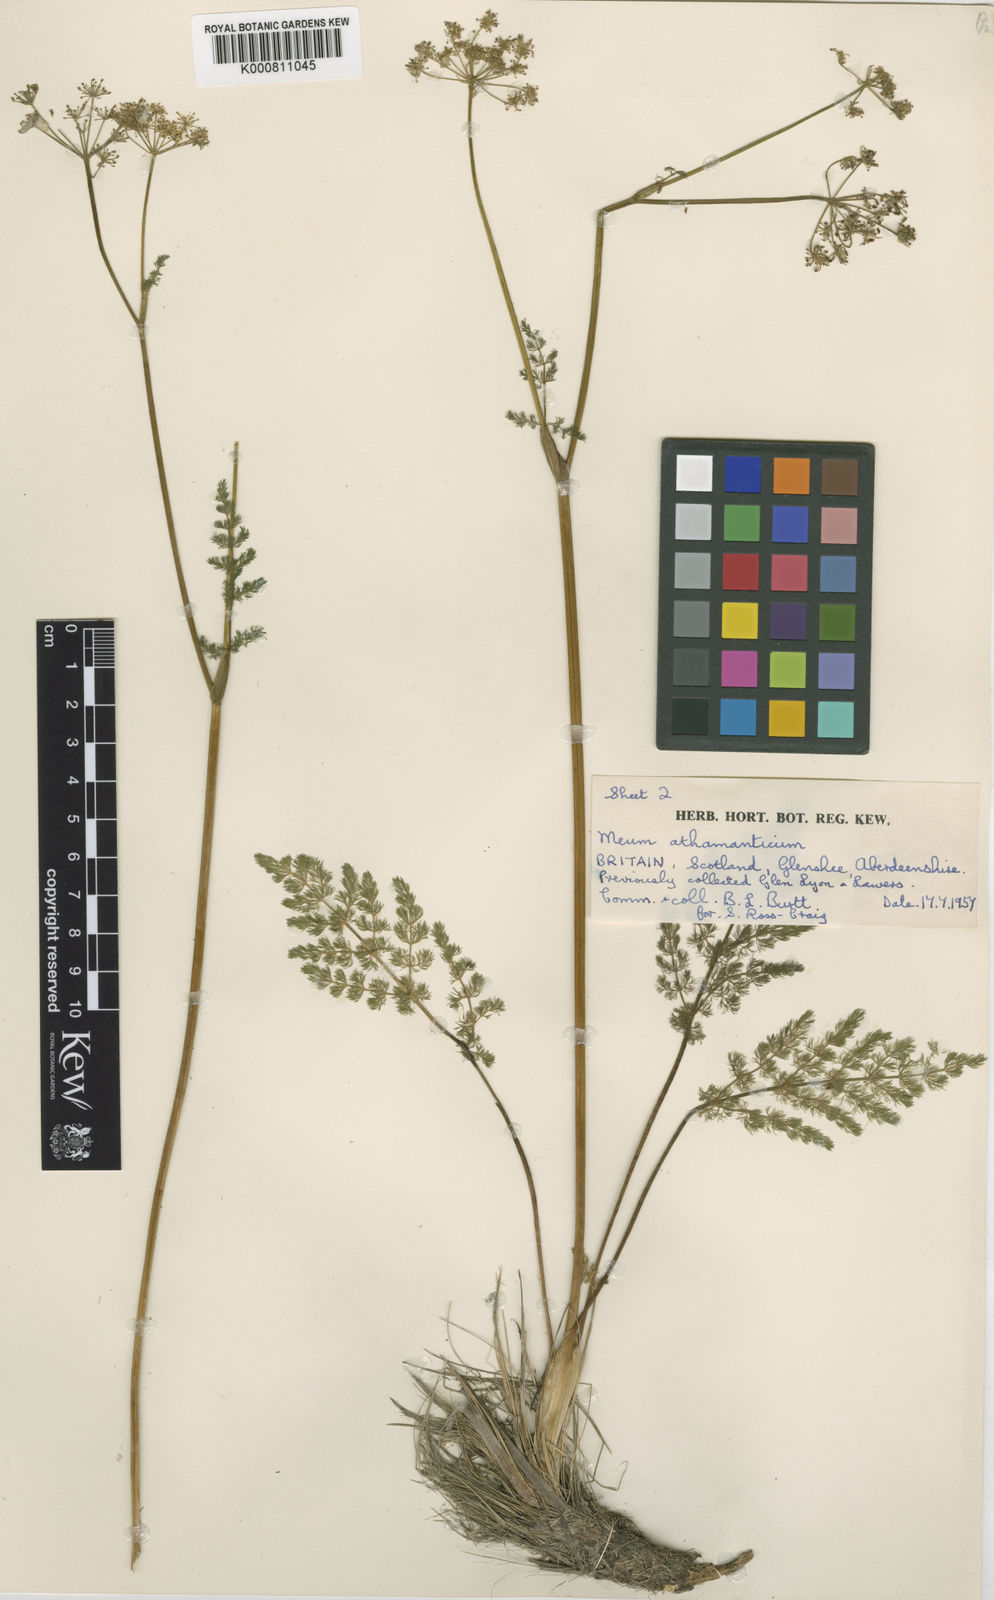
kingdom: Plantae
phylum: Tracheophyta
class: Magnoliopsida
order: Apiales
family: Apiaceae
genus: Meum
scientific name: Meum athamanticum
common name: Spignel
